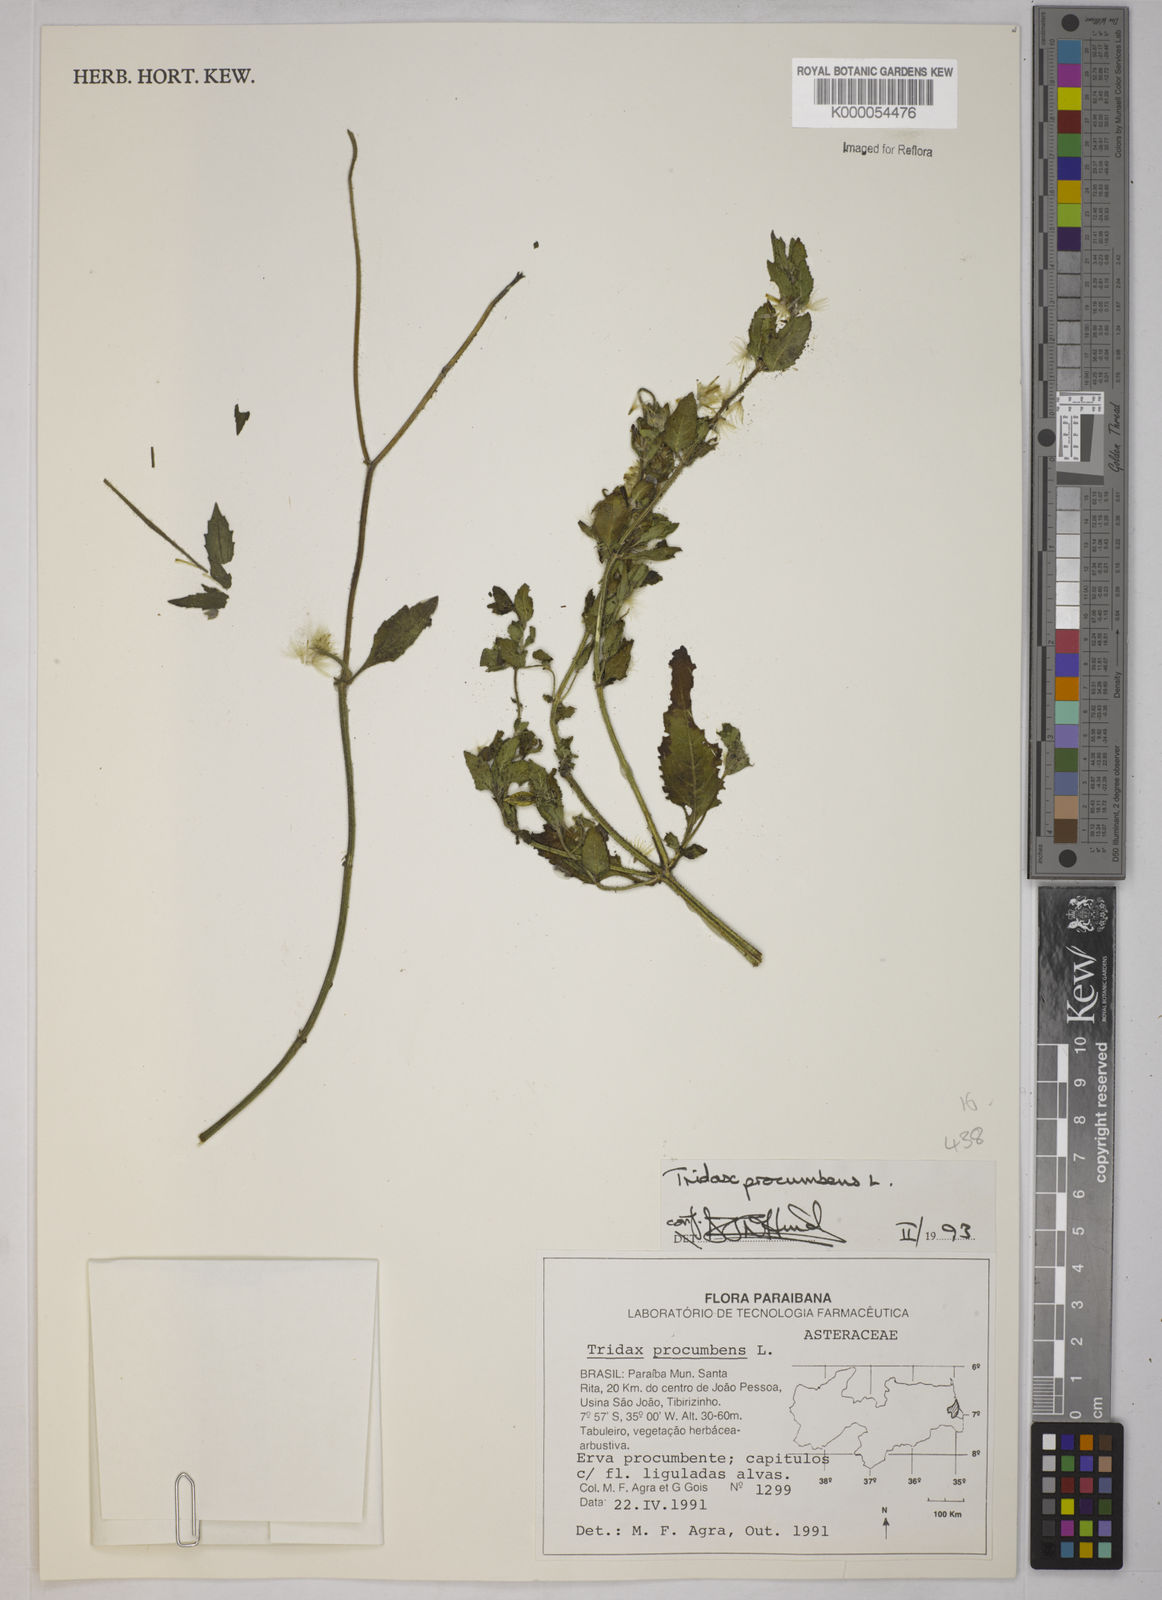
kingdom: Plantae
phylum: Tracheophyta
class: Magnoliopsida
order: Asterales
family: Asteraceae
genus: Tridax
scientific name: Tridax procumbens
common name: Coatbuttons
